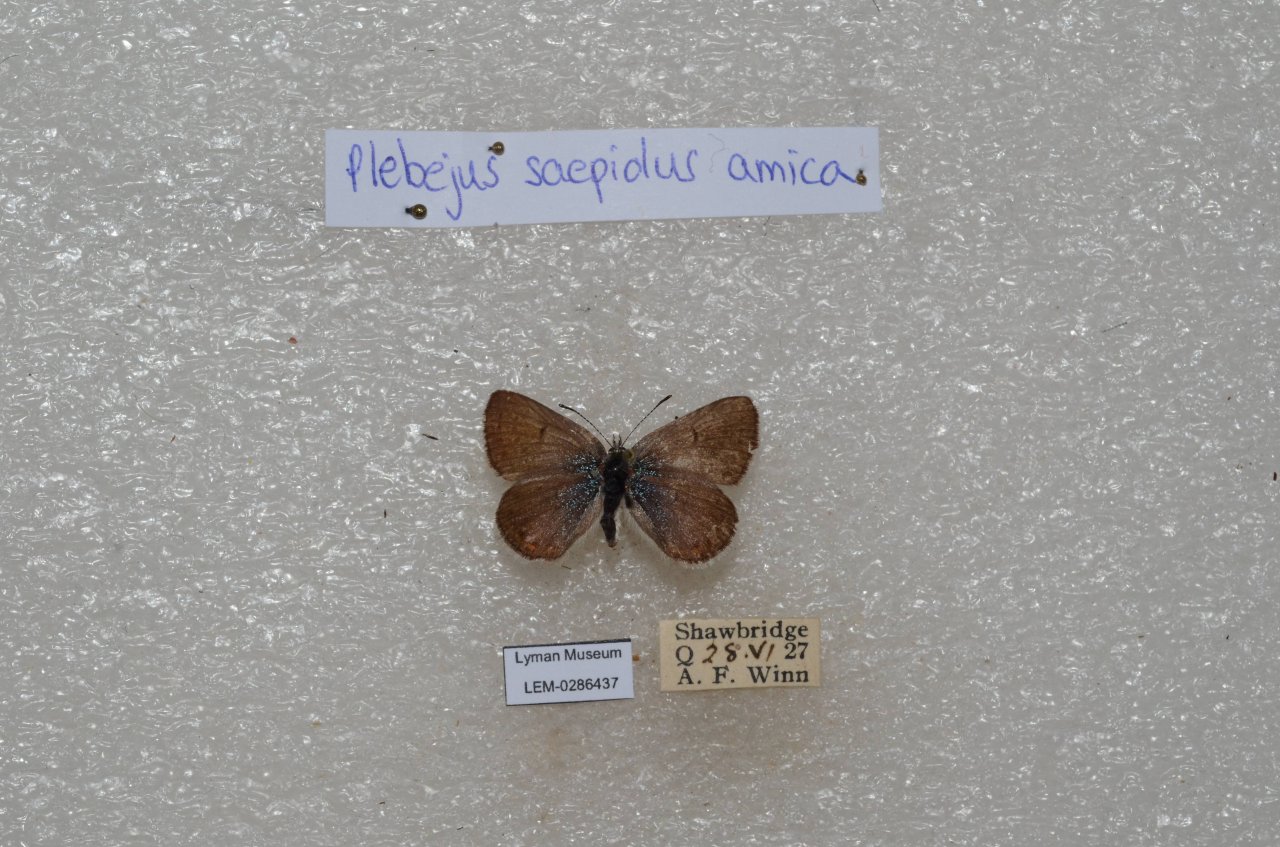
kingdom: Animalia
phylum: Arthropoda
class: Insecta
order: Lepidoptera
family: Lycaenidae
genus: Plebejus
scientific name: Plebejus saepiolus
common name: Greenish Blue
